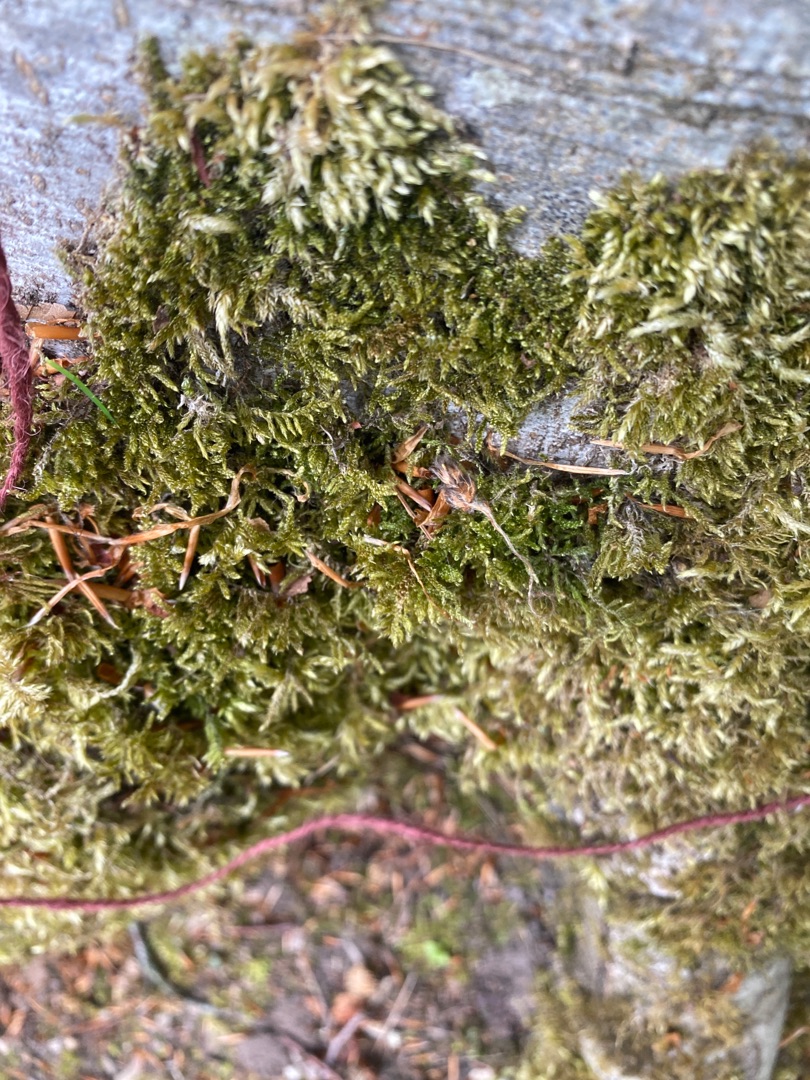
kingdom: Plantae
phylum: Bryophyta
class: Bryopsida
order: Hypnales
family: Hypnaceae
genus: Hypnum
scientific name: Hypnum cupressiforme
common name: Almindelig cypresmos
